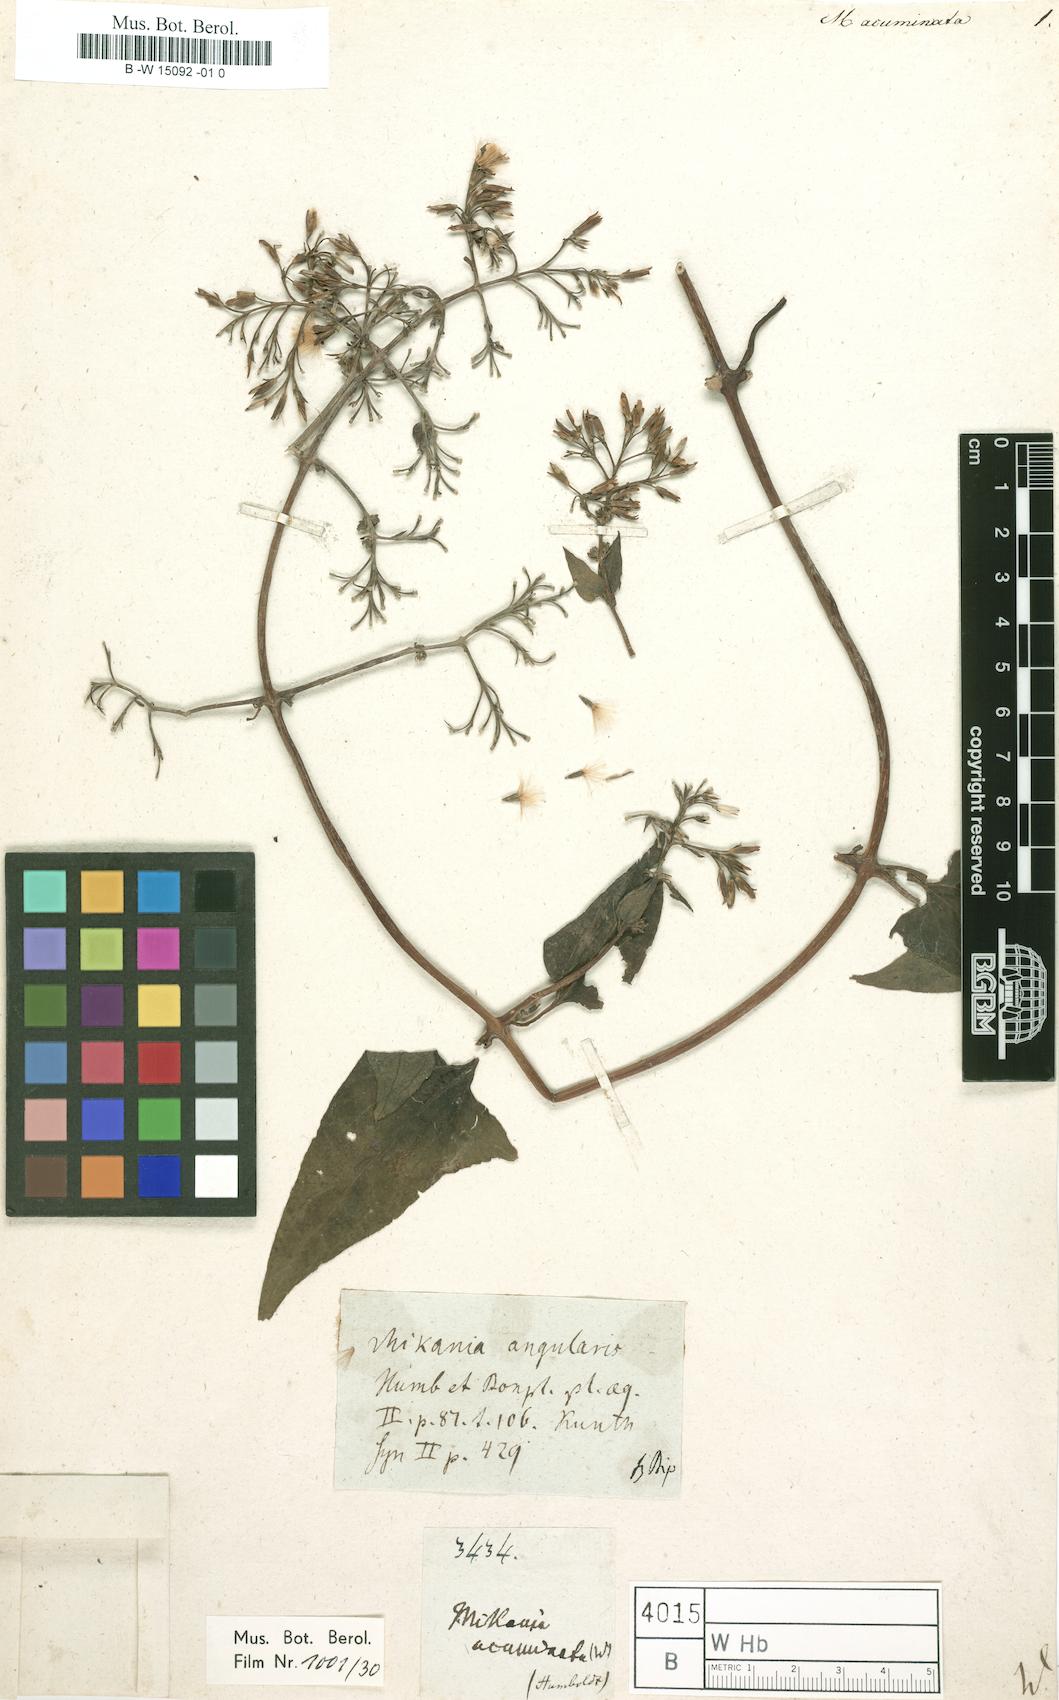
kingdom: Plantae
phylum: Tracheophyta
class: Magnoliopsida
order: Asterales
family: Asteraceae
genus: Mikania
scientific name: Mikania acuminata
